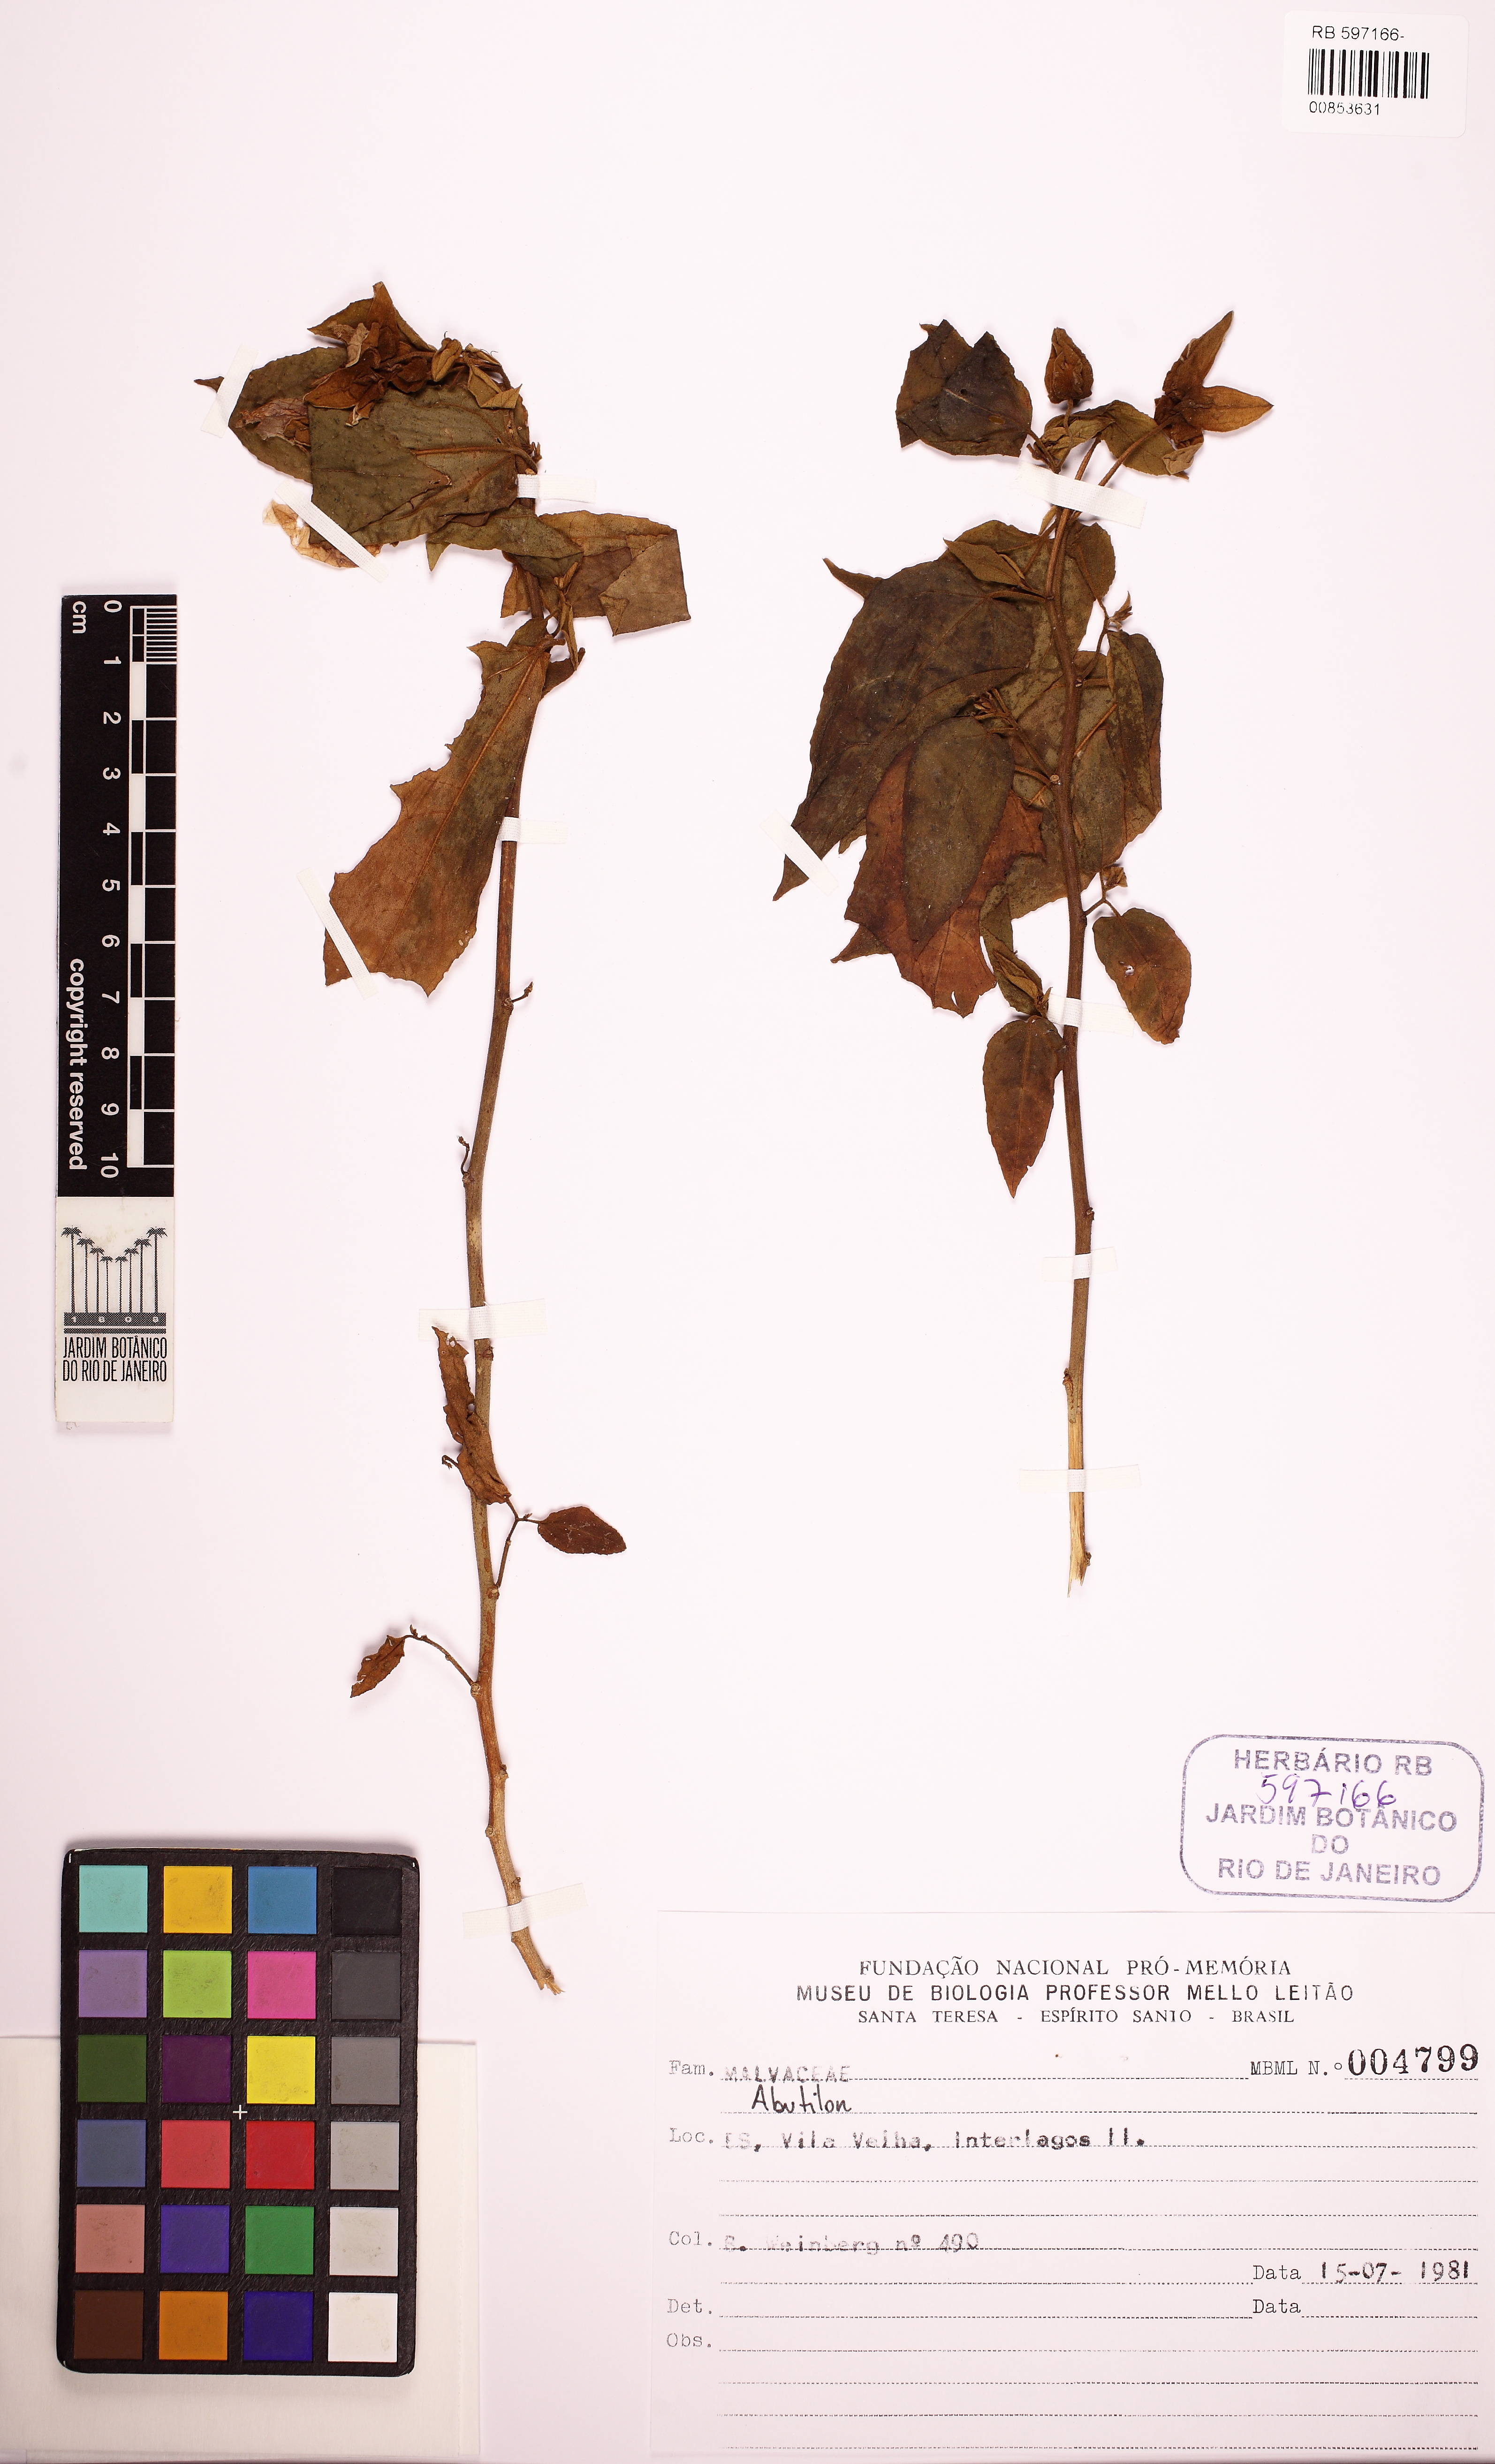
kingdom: Plantae
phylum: Tracheophyta
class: Magnoliopsida
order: Malvales
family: Malvaceae
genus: Abutilon
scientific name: Abutilon
